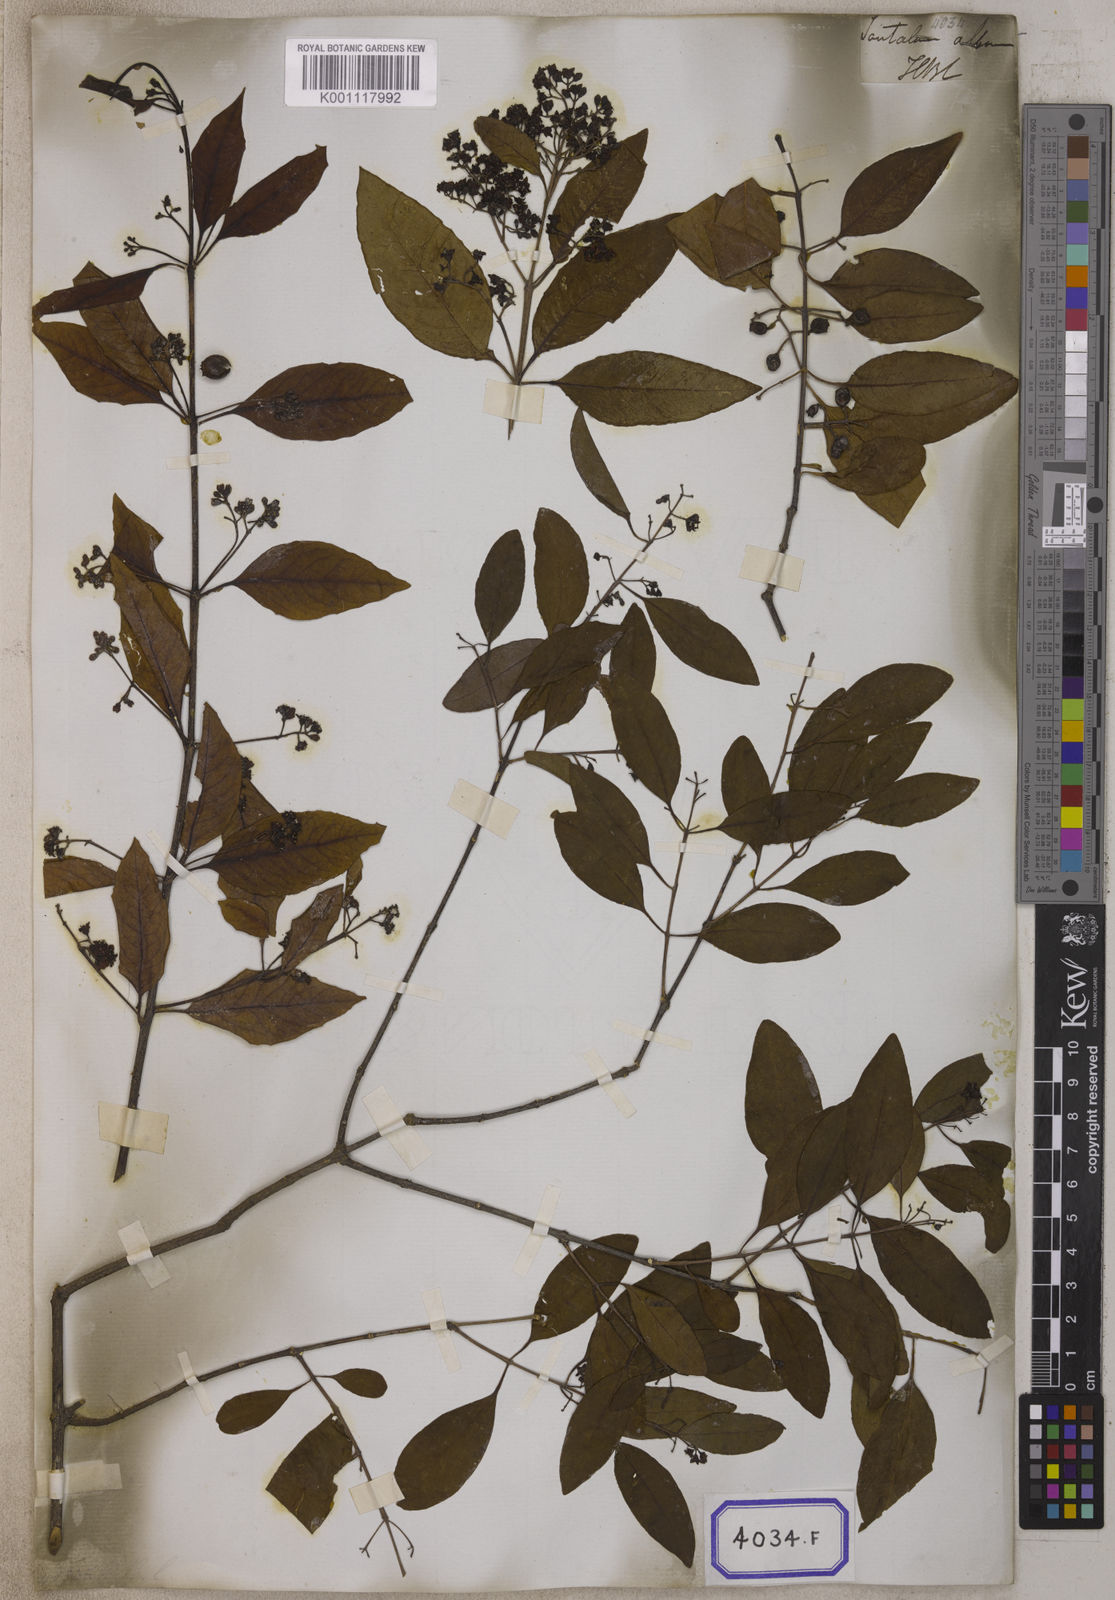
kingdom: Plantae
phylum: Tracheophyta
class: Magnoliopsida
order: Malvales
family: Malvaceae
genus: Grewia
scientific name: Grewia lutea
